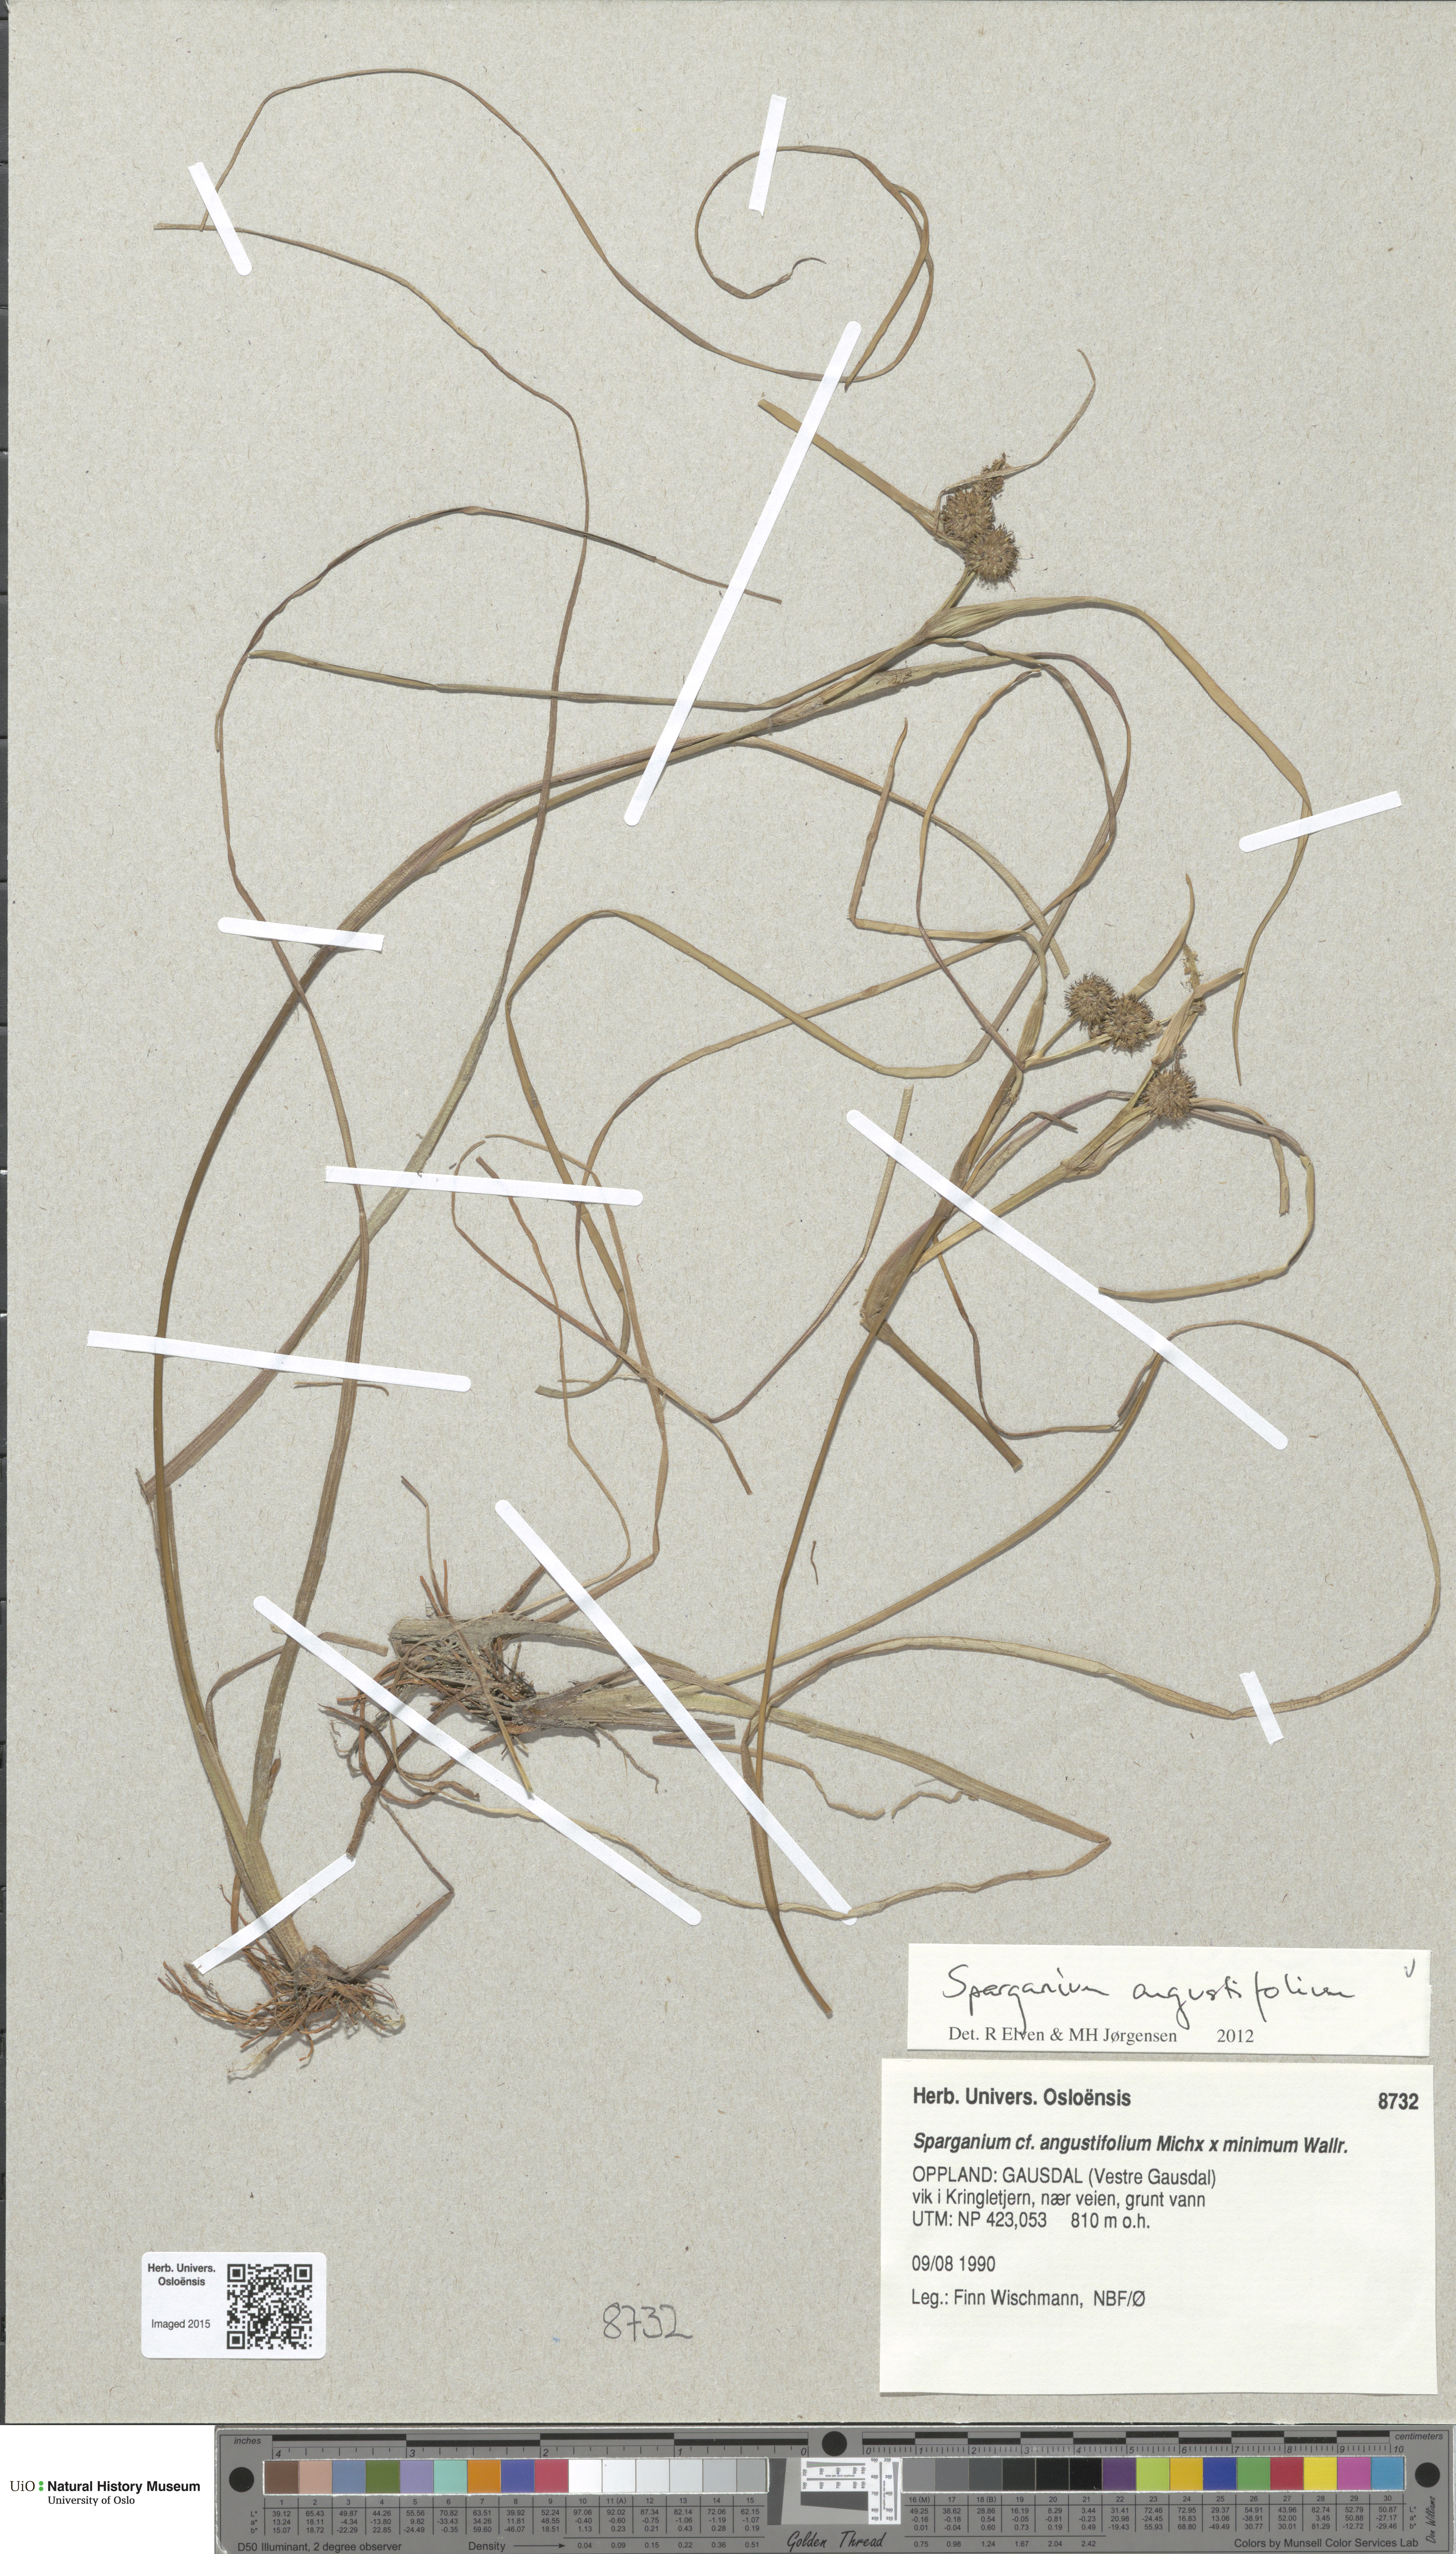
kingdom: Plantae
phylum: Tracheophyta
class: Liliopsida
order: Poales
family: Typhaceae
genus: Sparganium
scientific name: Sparganium angustifolium
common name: Floating bur-reed
